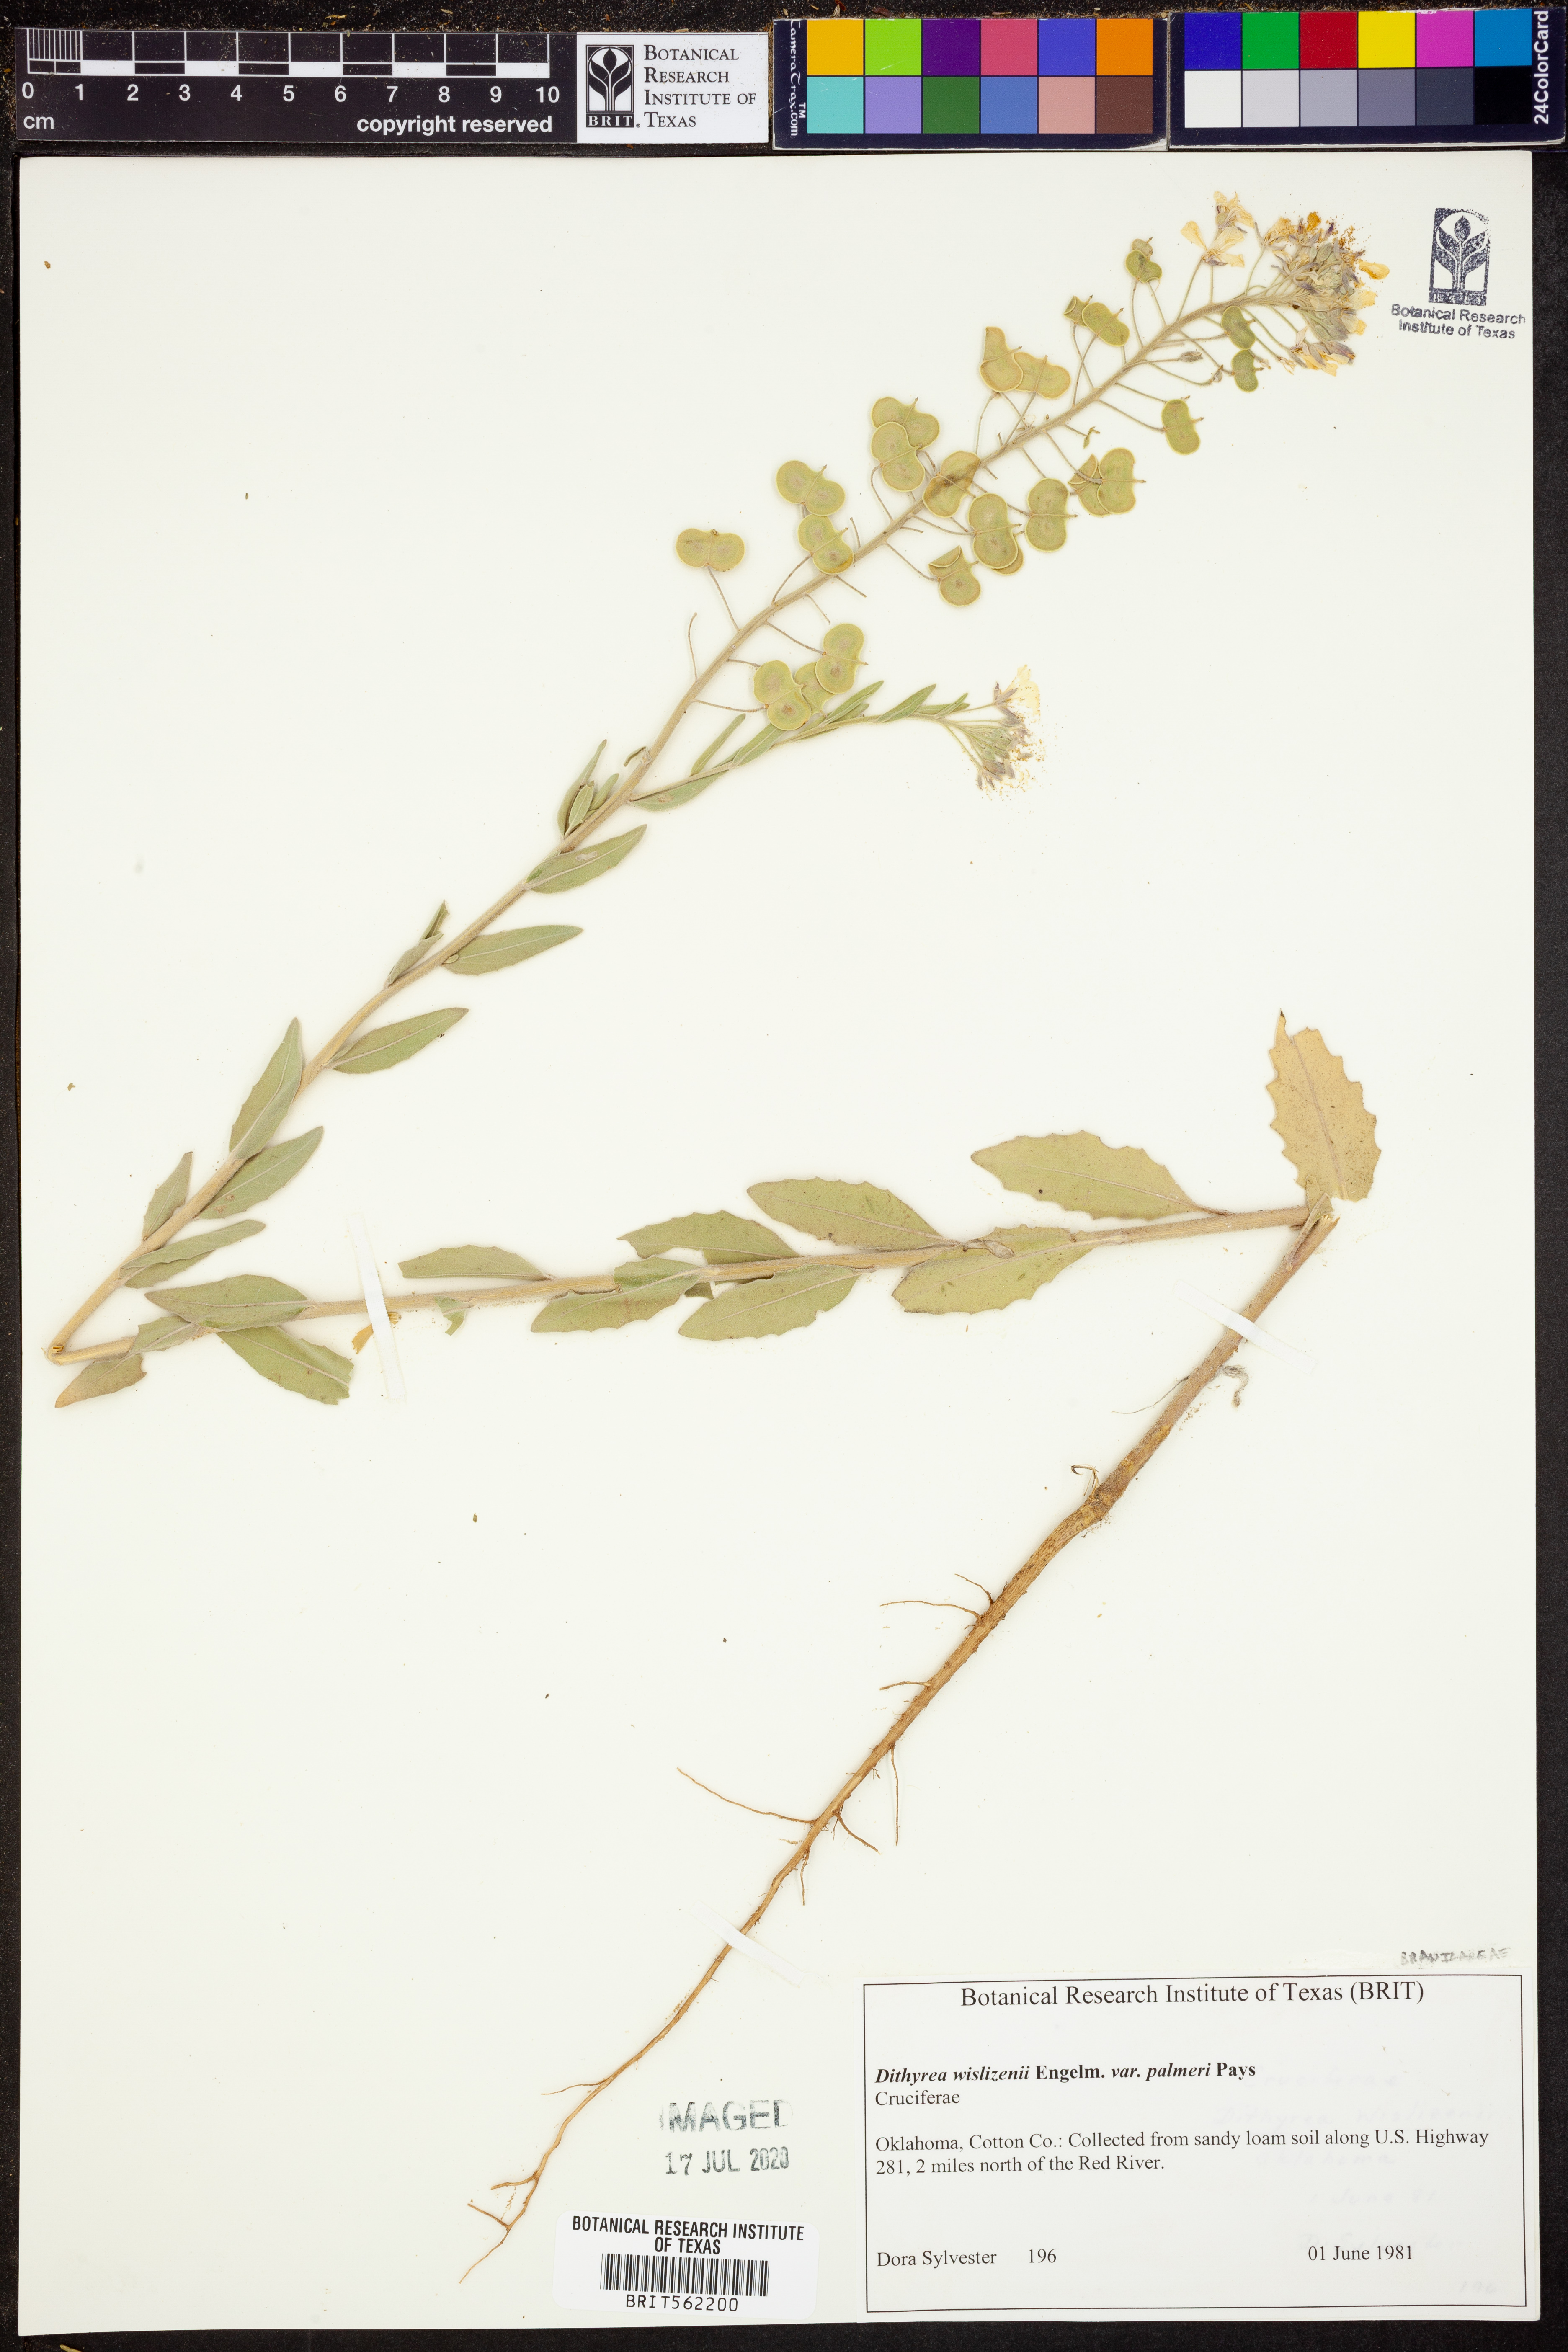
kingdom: Plantae
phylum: Tracheophyta
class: Magnoliopsida
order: Brassicales
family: Brassicaceae
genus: Dimorphocarpa
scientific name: Dimorphocarpa candicans
